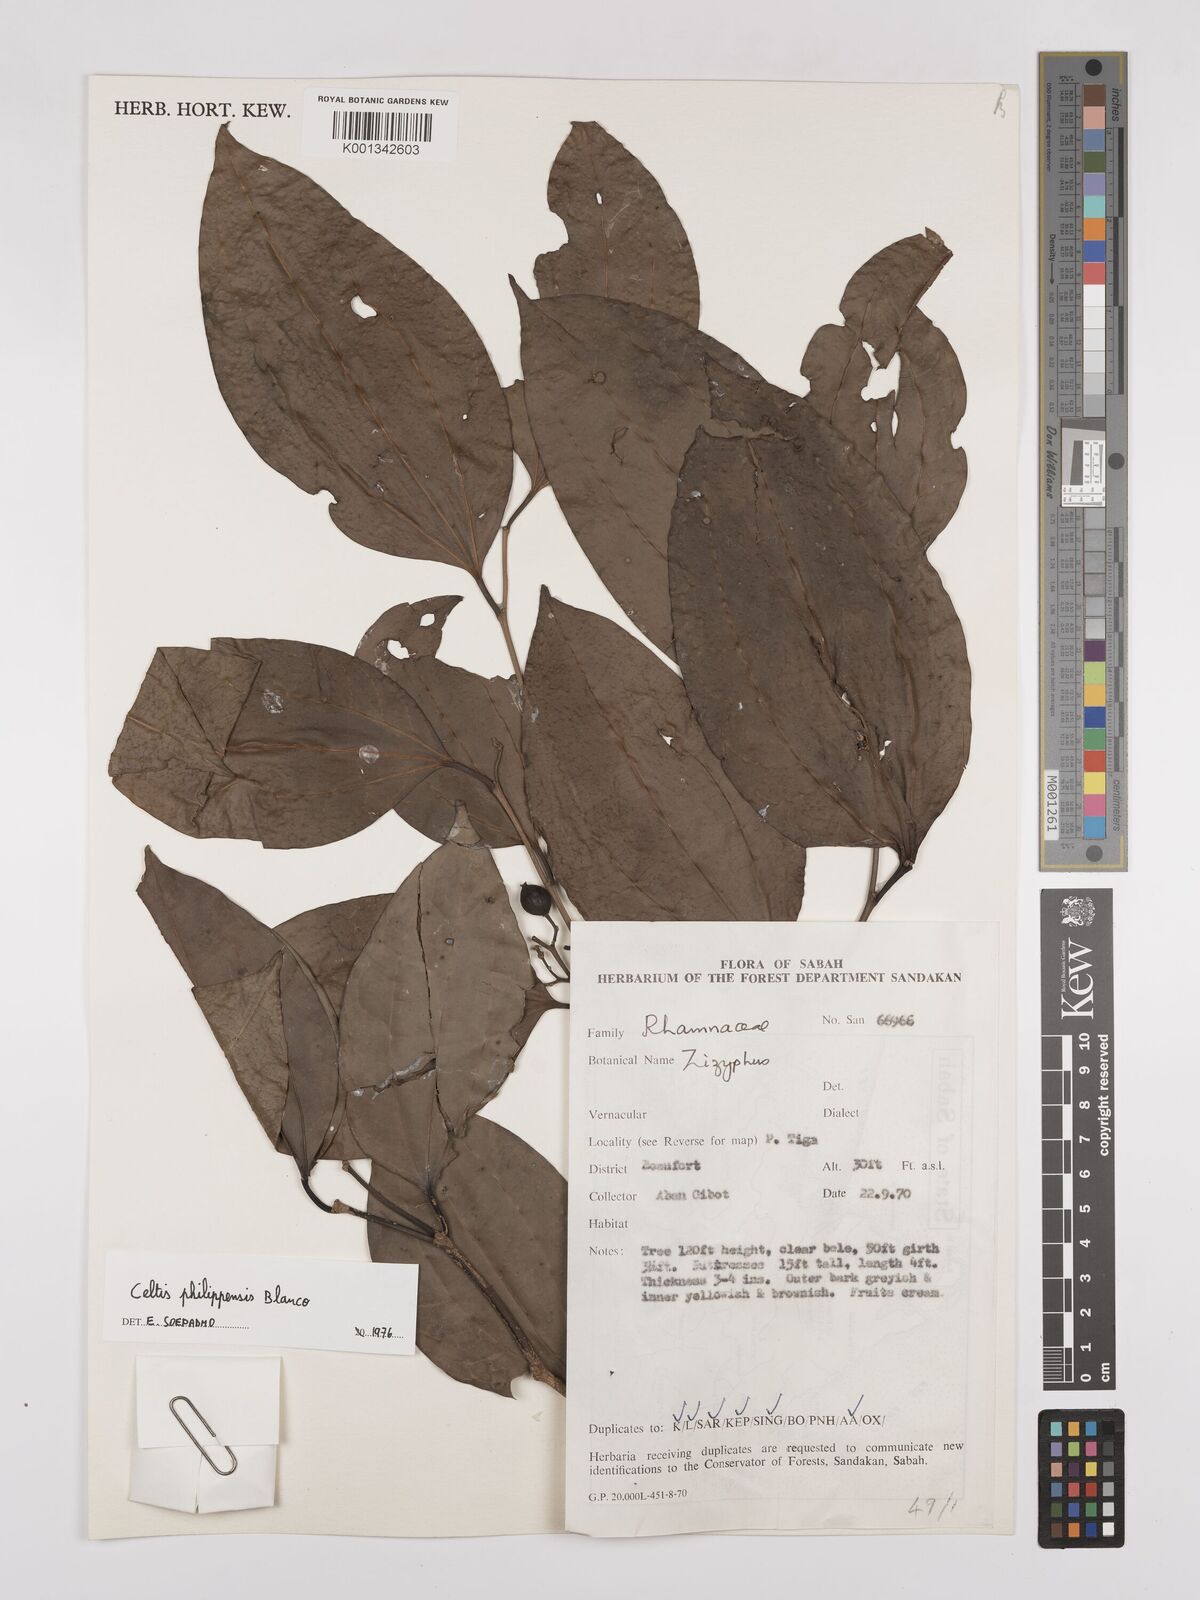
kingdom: Plantae
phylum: Tracheophyta
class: Magnoliopsida
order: Rosales
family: Cannabaceae
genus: Celtis
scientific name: Celtis philippensis
